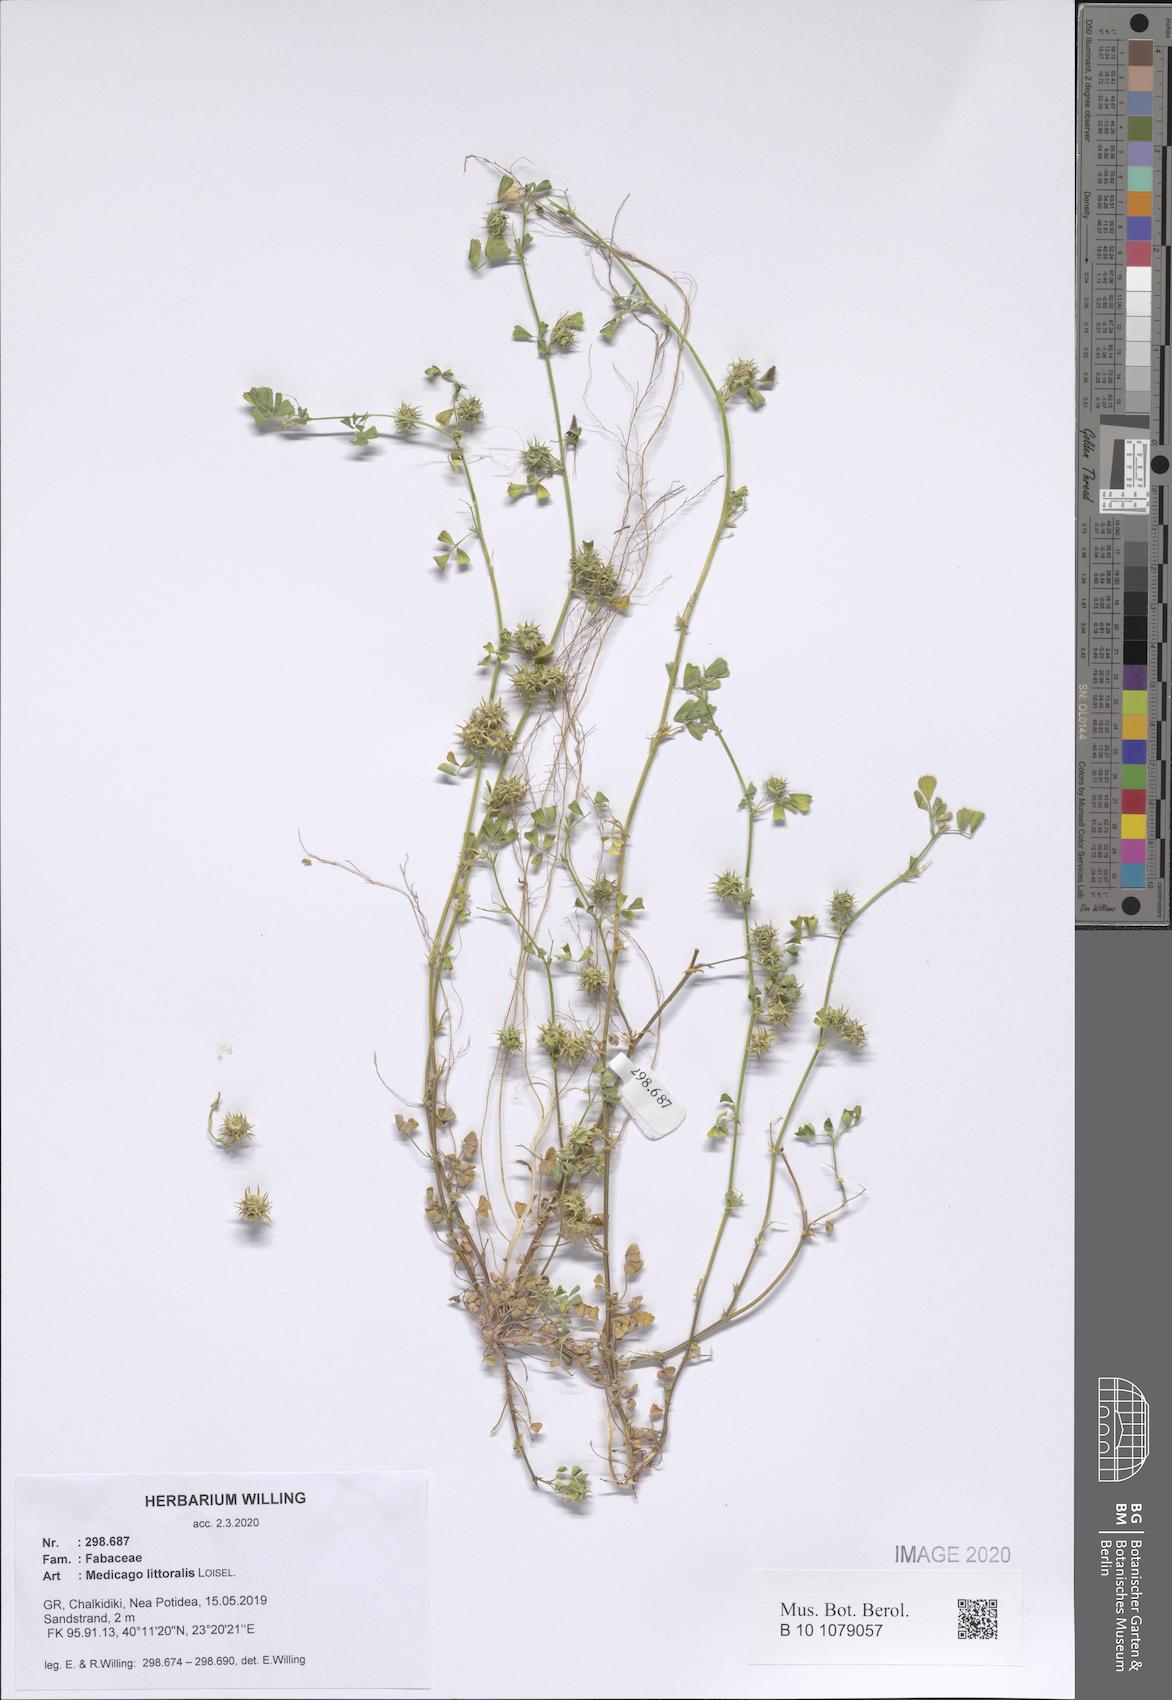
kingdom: Plantae
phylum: Tracheophyta
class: Magnoliopsida
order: Fabales
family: Fabaceae
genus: Medicago
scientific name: Medicago littoralis
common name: Shore medick
